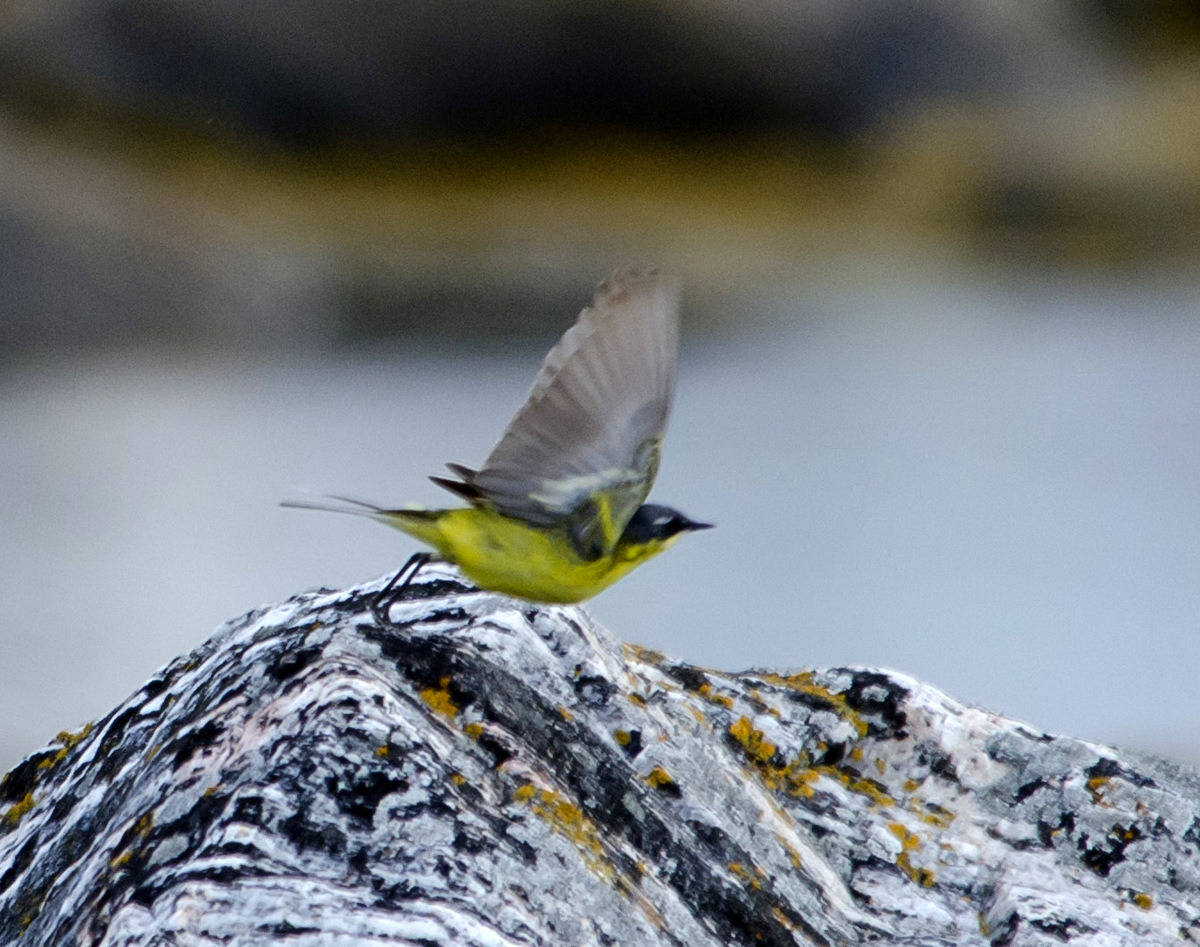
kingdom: Animalia
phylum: Chordata
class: Aves
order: Passeriformes
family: Motacillidae
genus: Motacilla
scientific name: Motacilla flava
